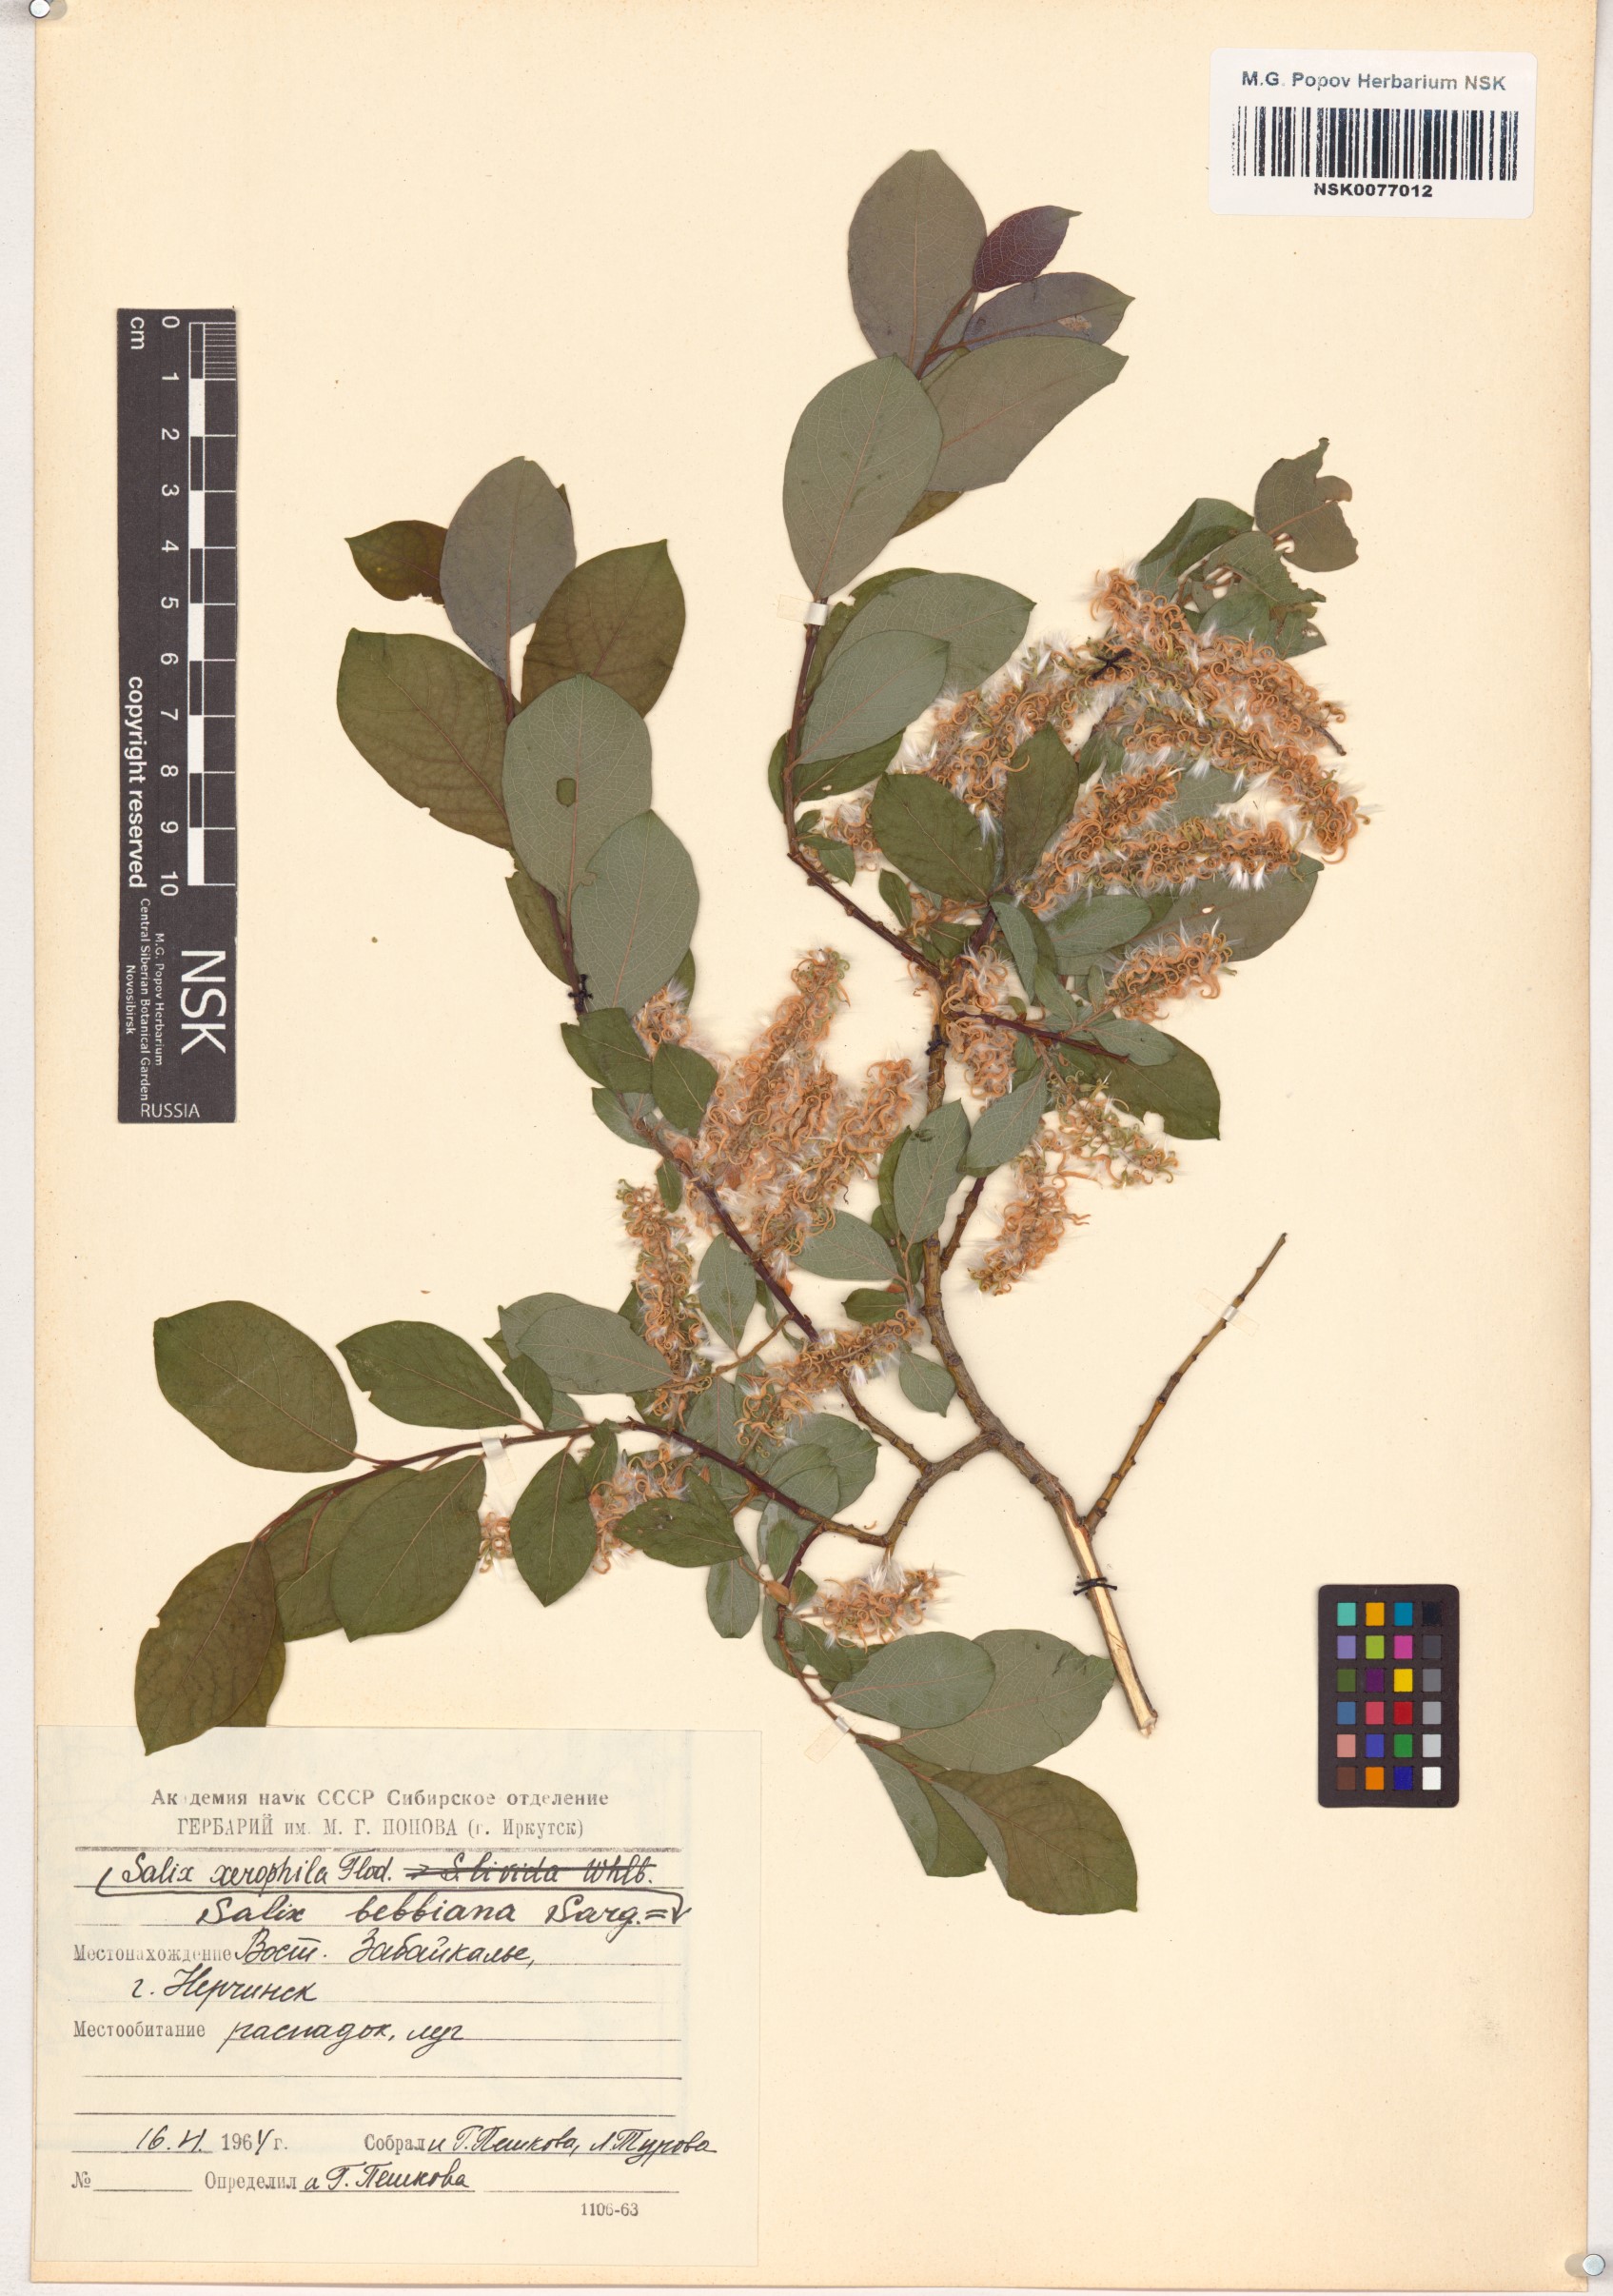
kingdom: Plantae
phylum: Tracheophyta
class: Magnoliopsida
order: Malpighiales
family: Salicaceae
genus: Salix
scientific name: Salix bebbiana
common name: Bebb's willow
